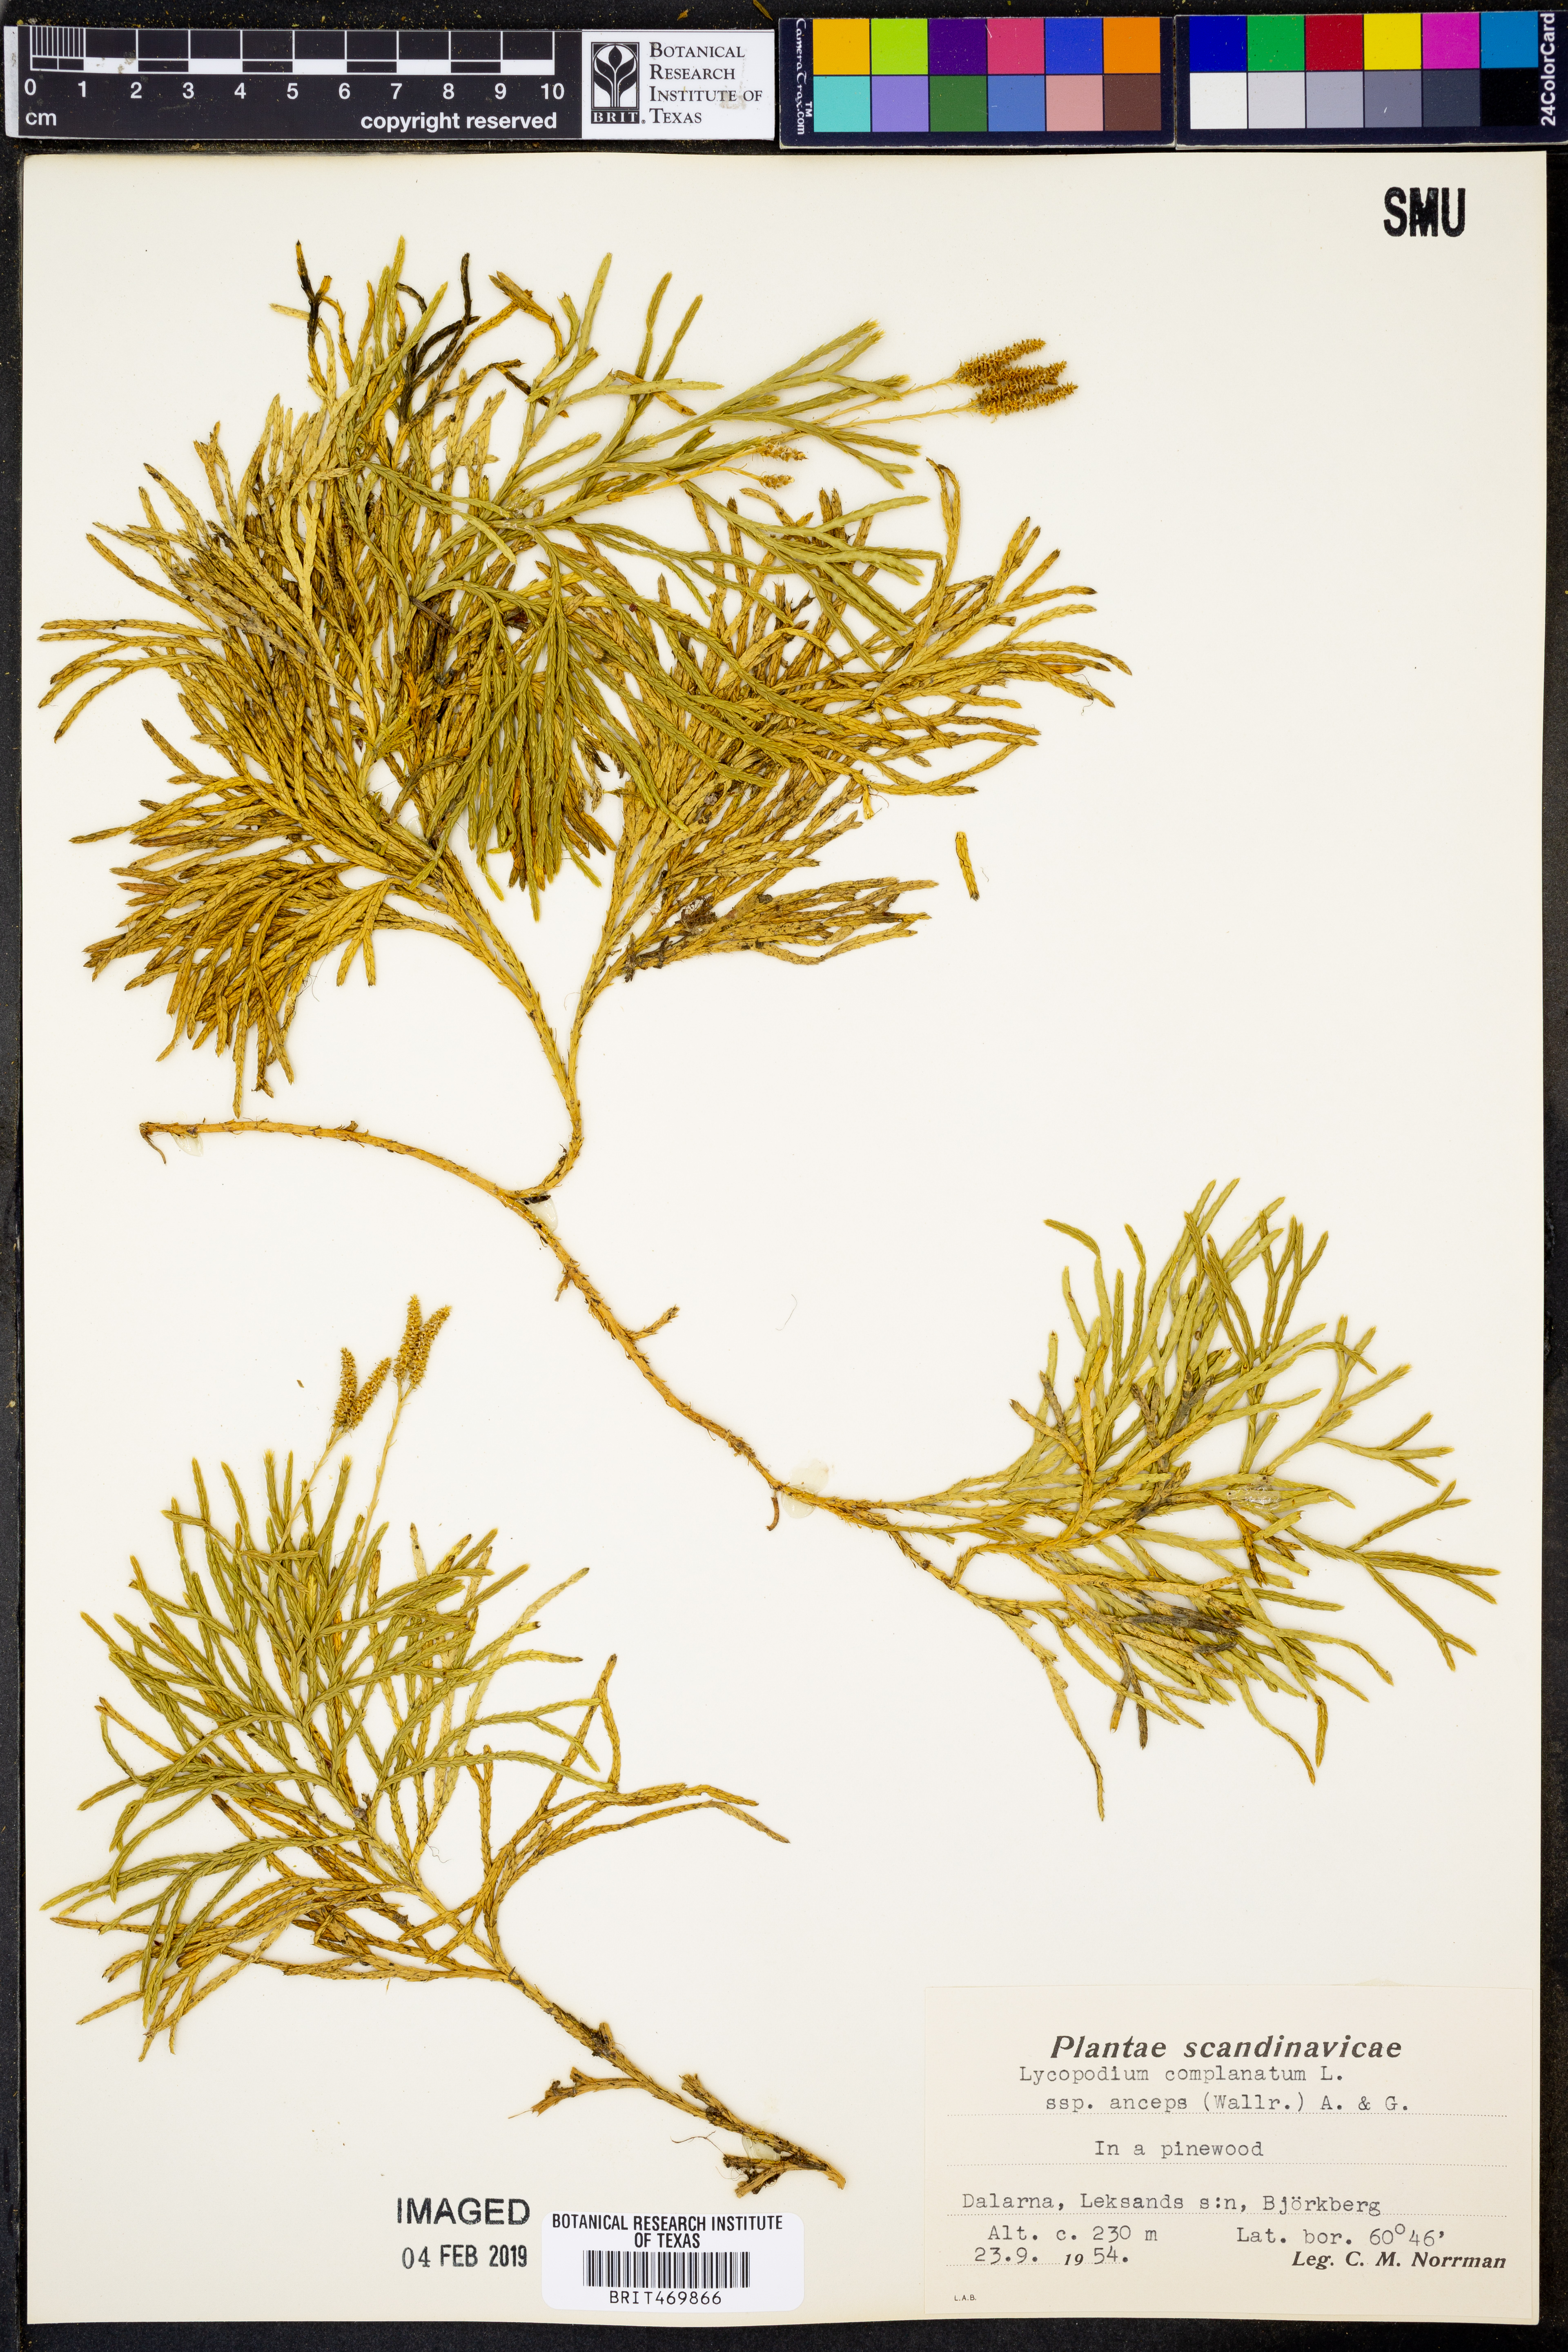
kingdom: Plantae
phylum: Tracheophyta
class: Lycopodiopsida
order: Lycopodiales
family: Lycopodiaceae
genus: Diphasiastrum
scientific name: Diphasiastrum complanatum
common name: Northern running-pine
